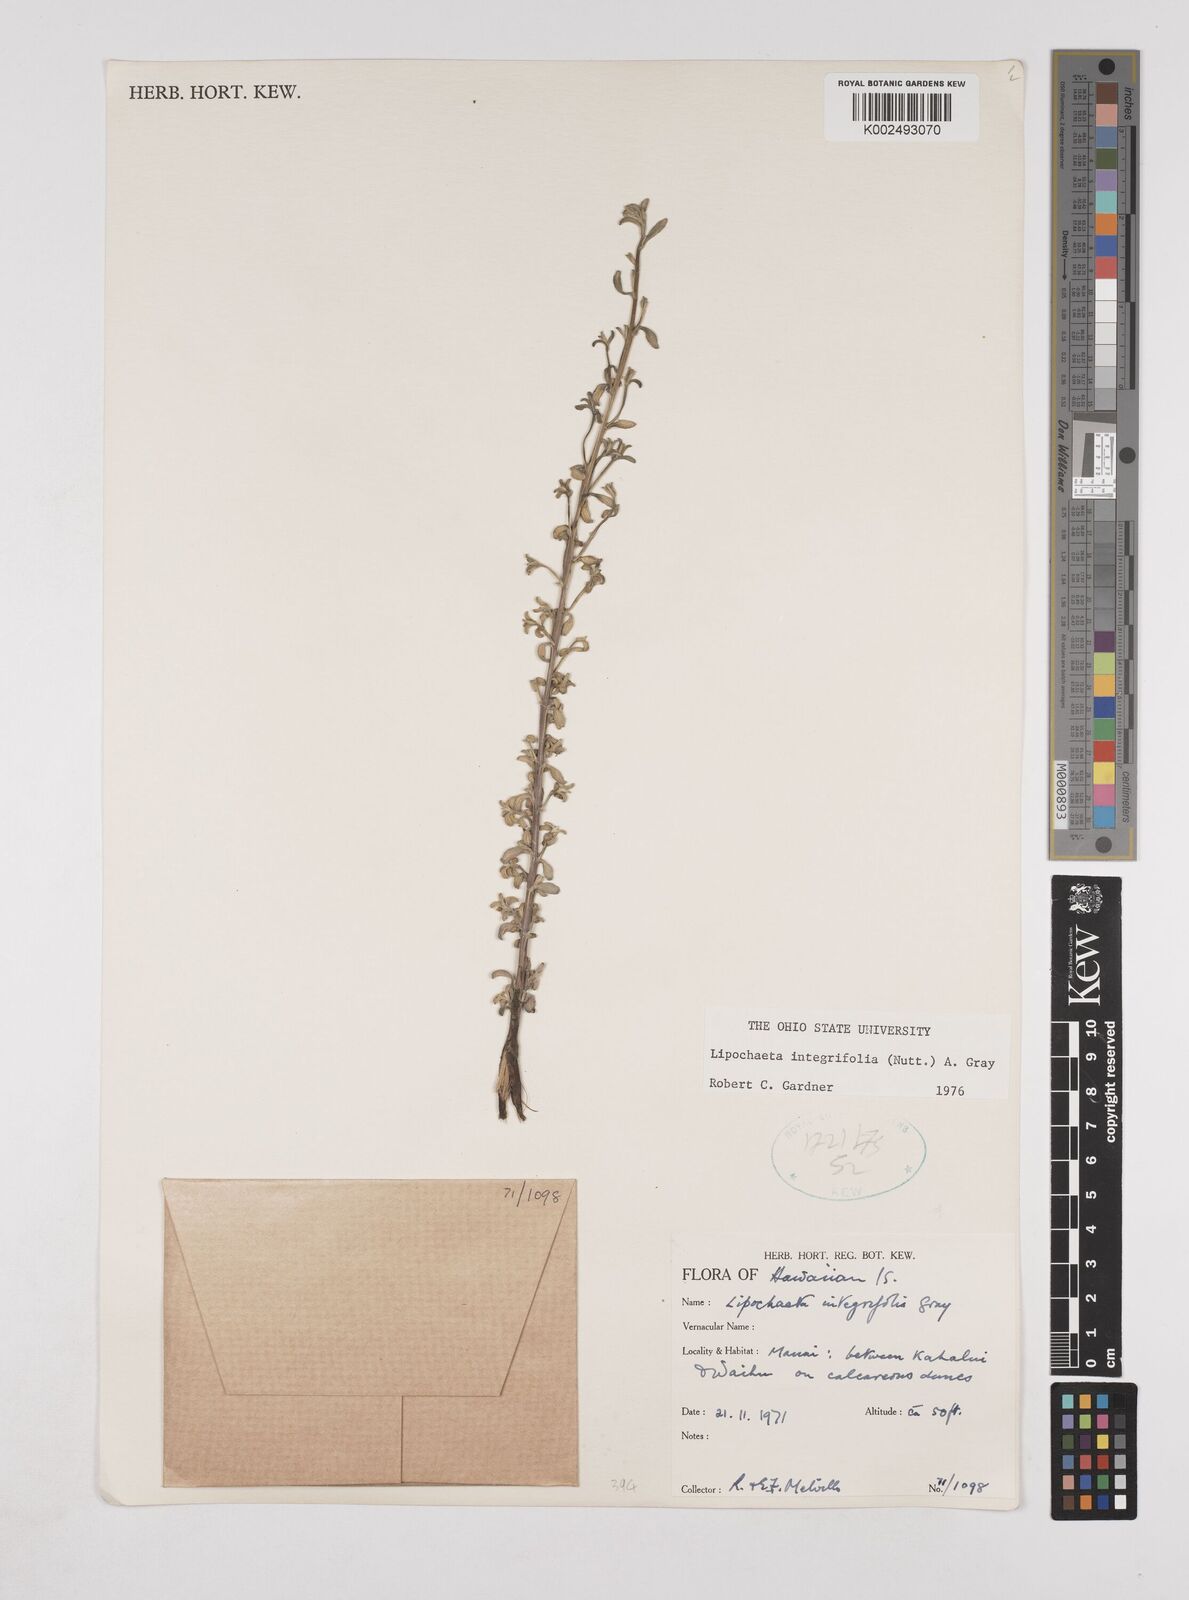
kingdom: Plantae
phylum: Tracheophyta
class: Magnoliopsida
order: Asterales
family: Asteraceae
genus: Lipochaeta
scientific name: Lipochaeta integrifolia
